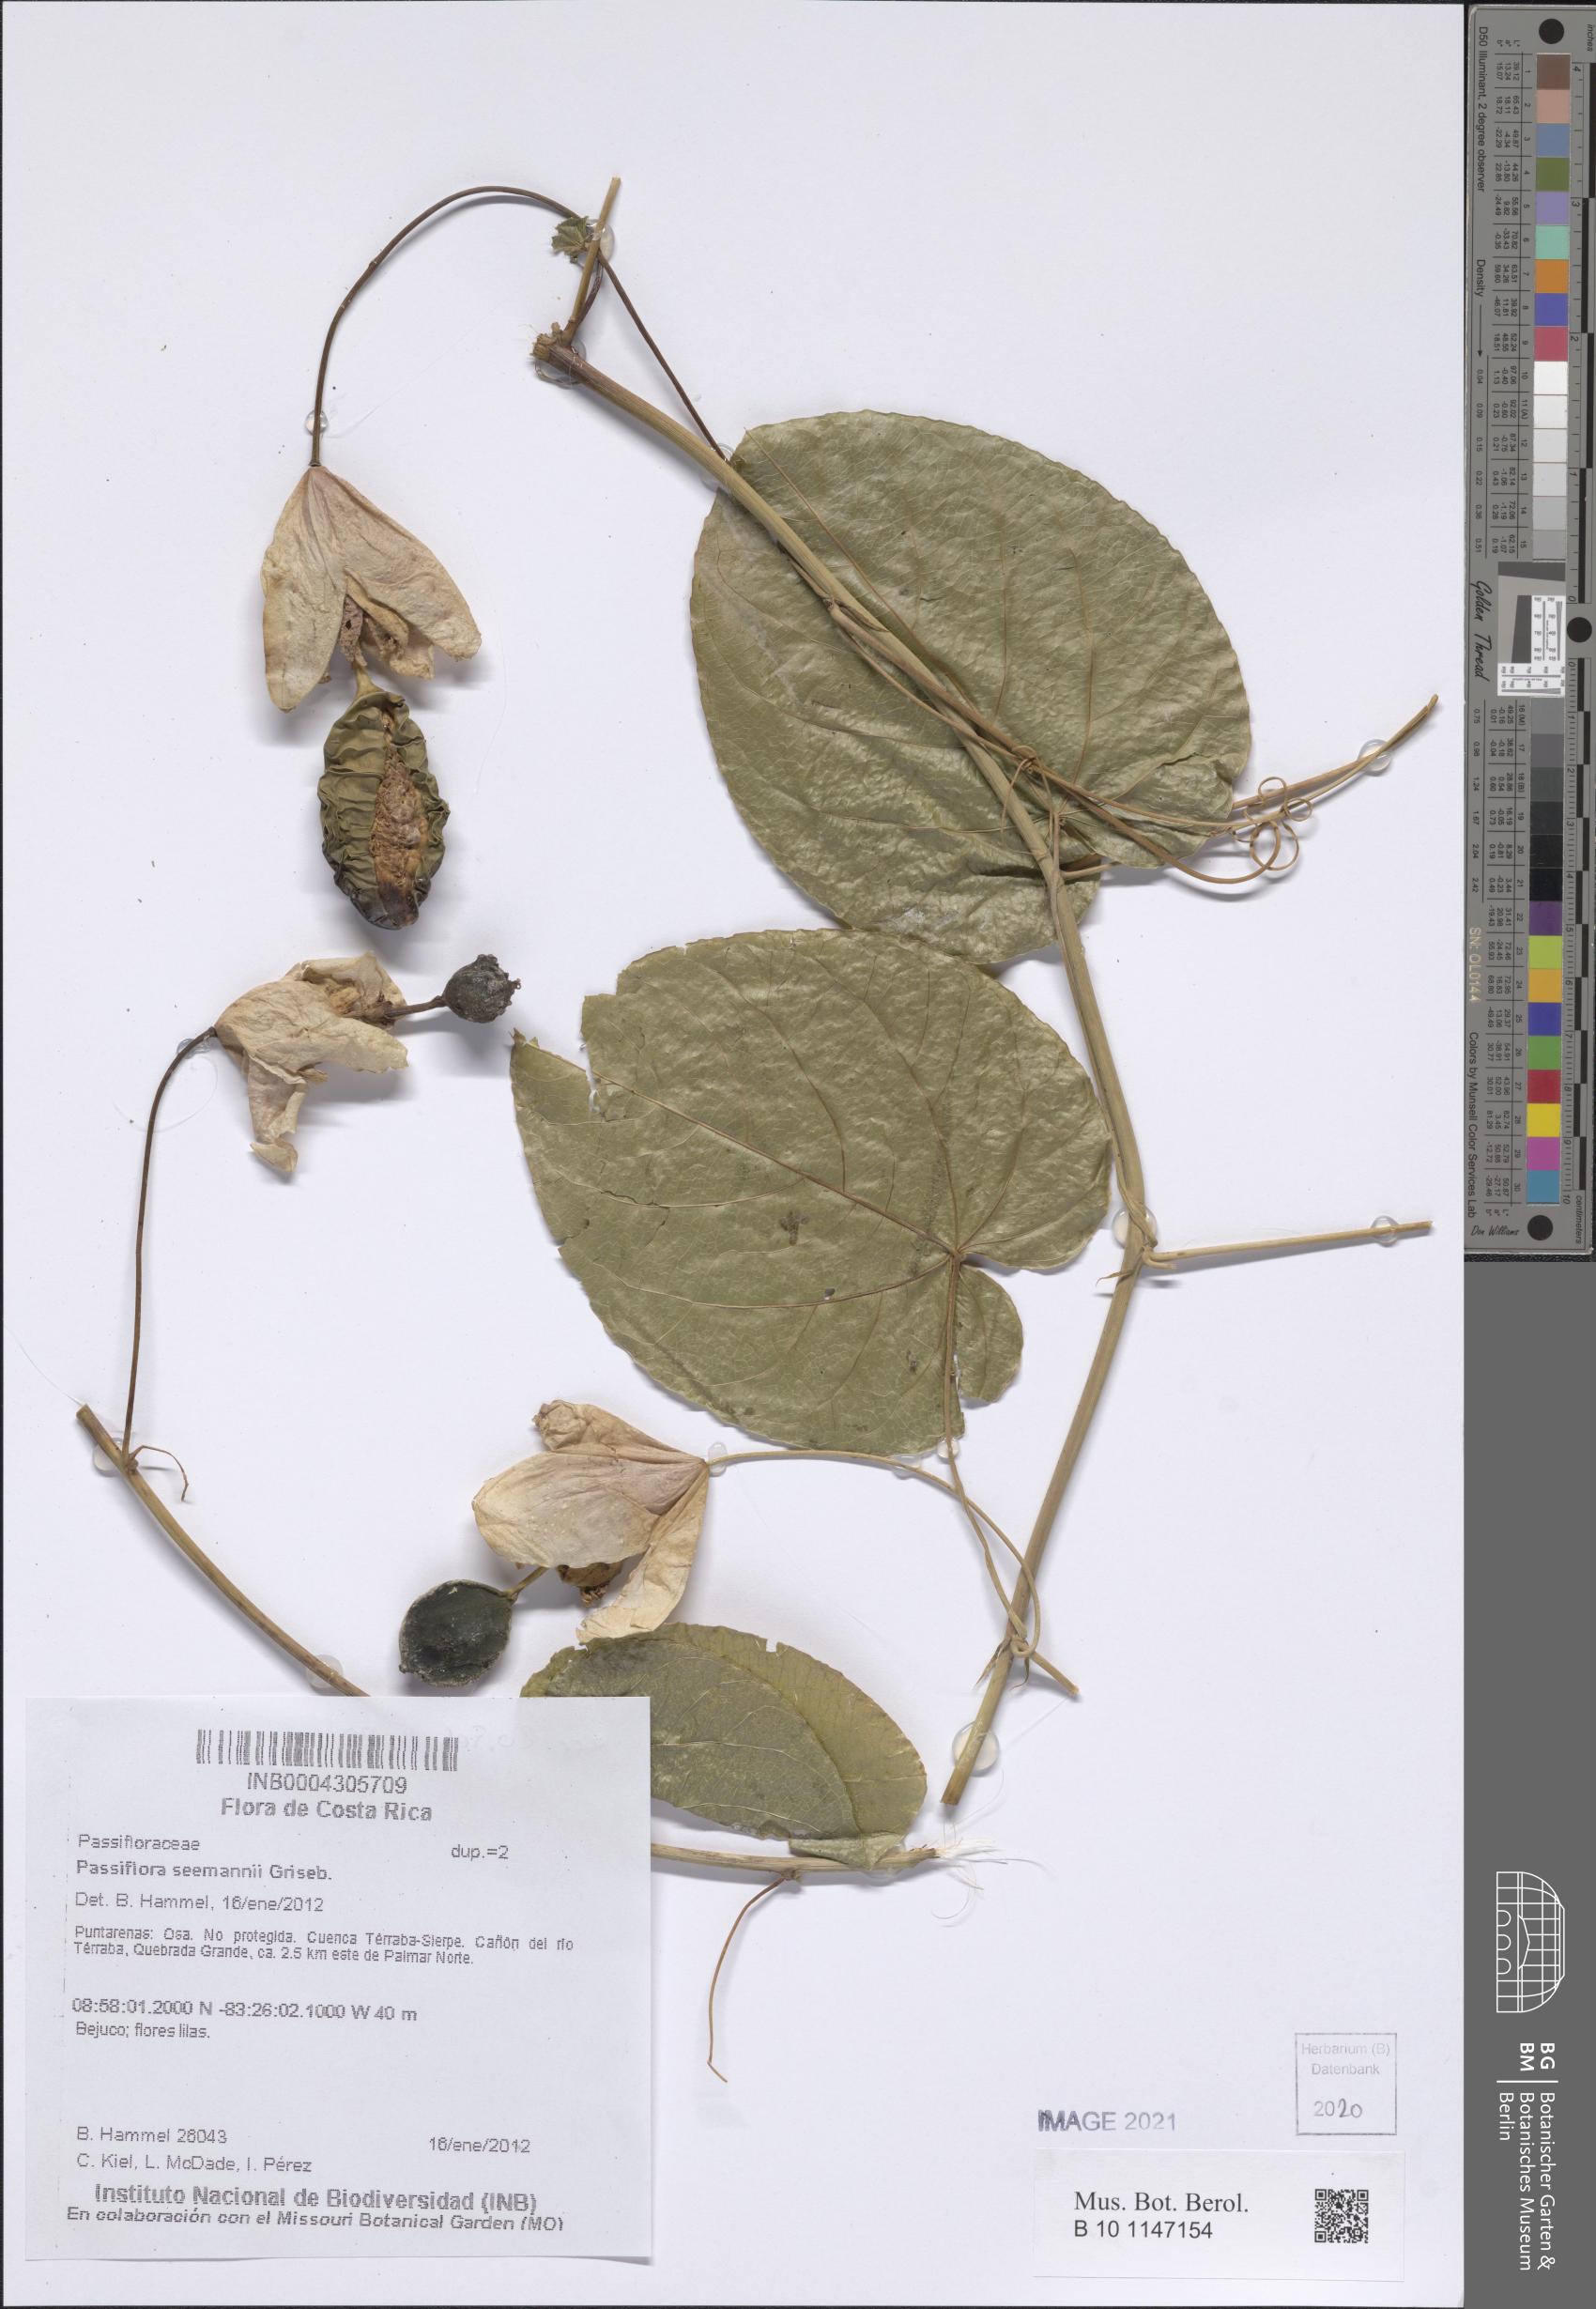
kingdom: Plantae
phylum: Tracheophyta
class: Magnoliopsida
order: Malpighiales
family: Passifloraceae
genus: Passiflora
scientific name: Passiflora seemannii
